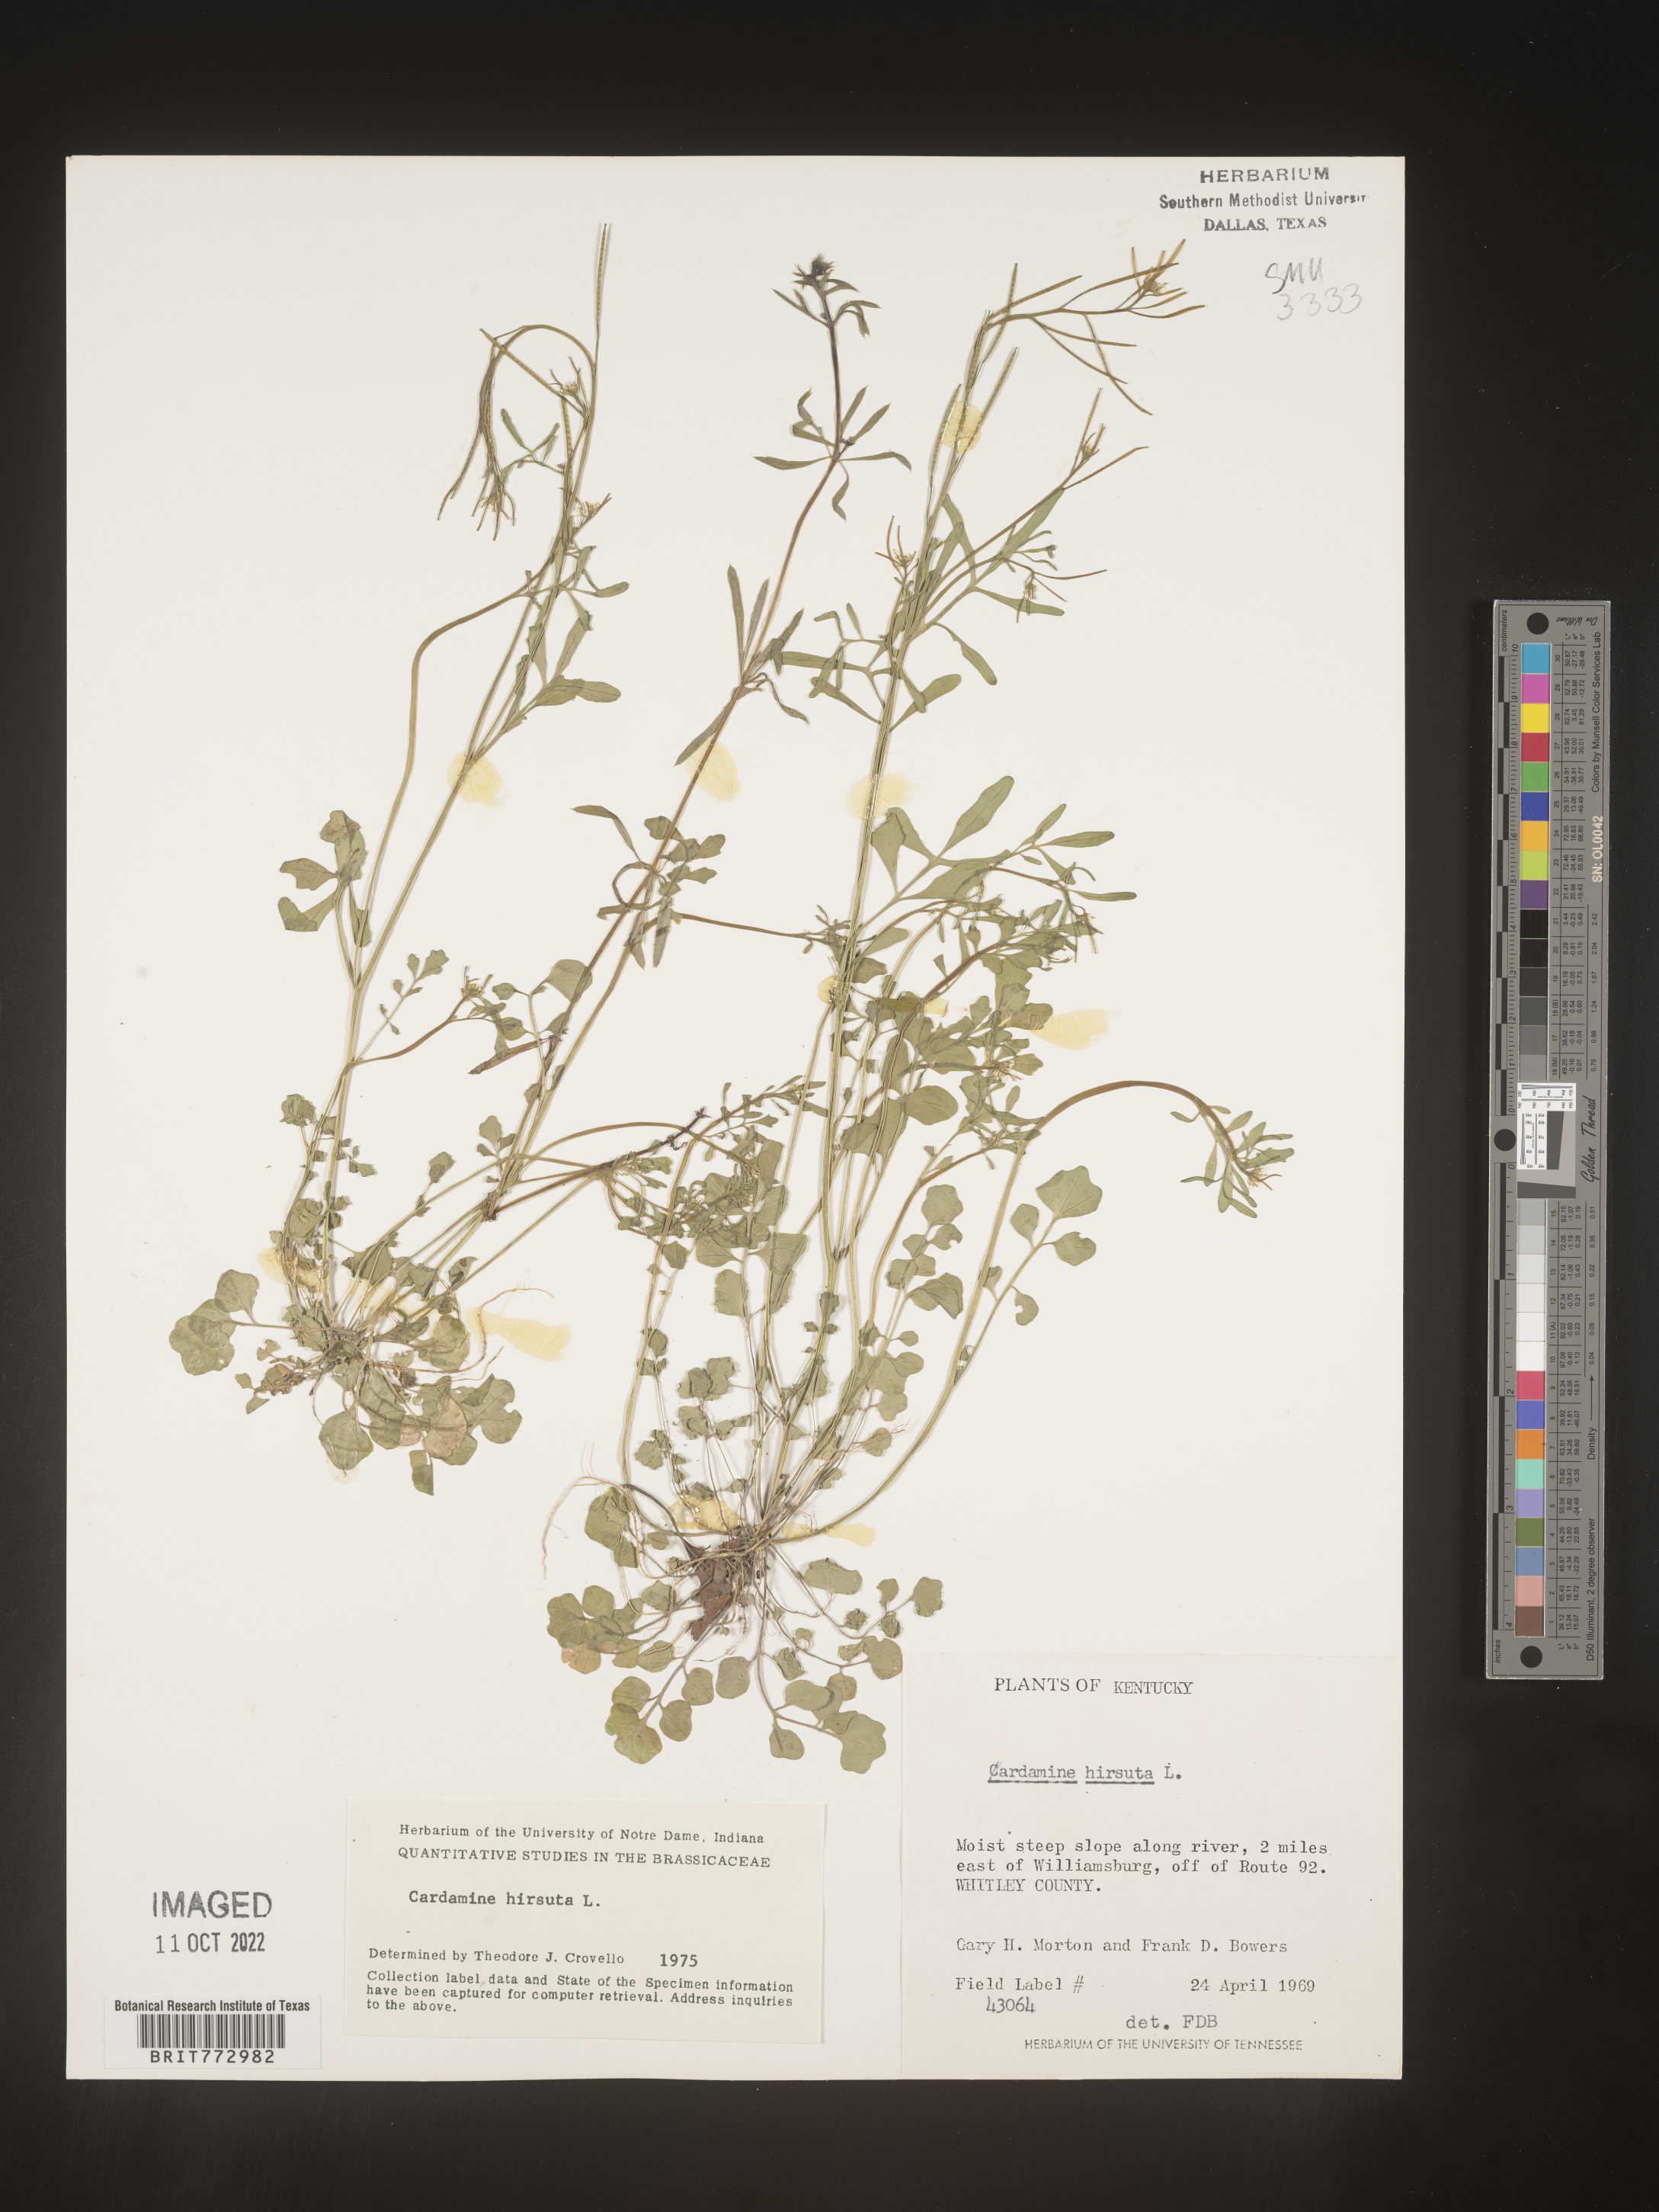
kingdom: Plantae
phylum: Tracheophyta
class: Magnoliopsida
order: Brassicales
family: Brassicaceae
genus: Cardamine
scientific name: Cardamine hirsuta
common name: Hairy bittercress
